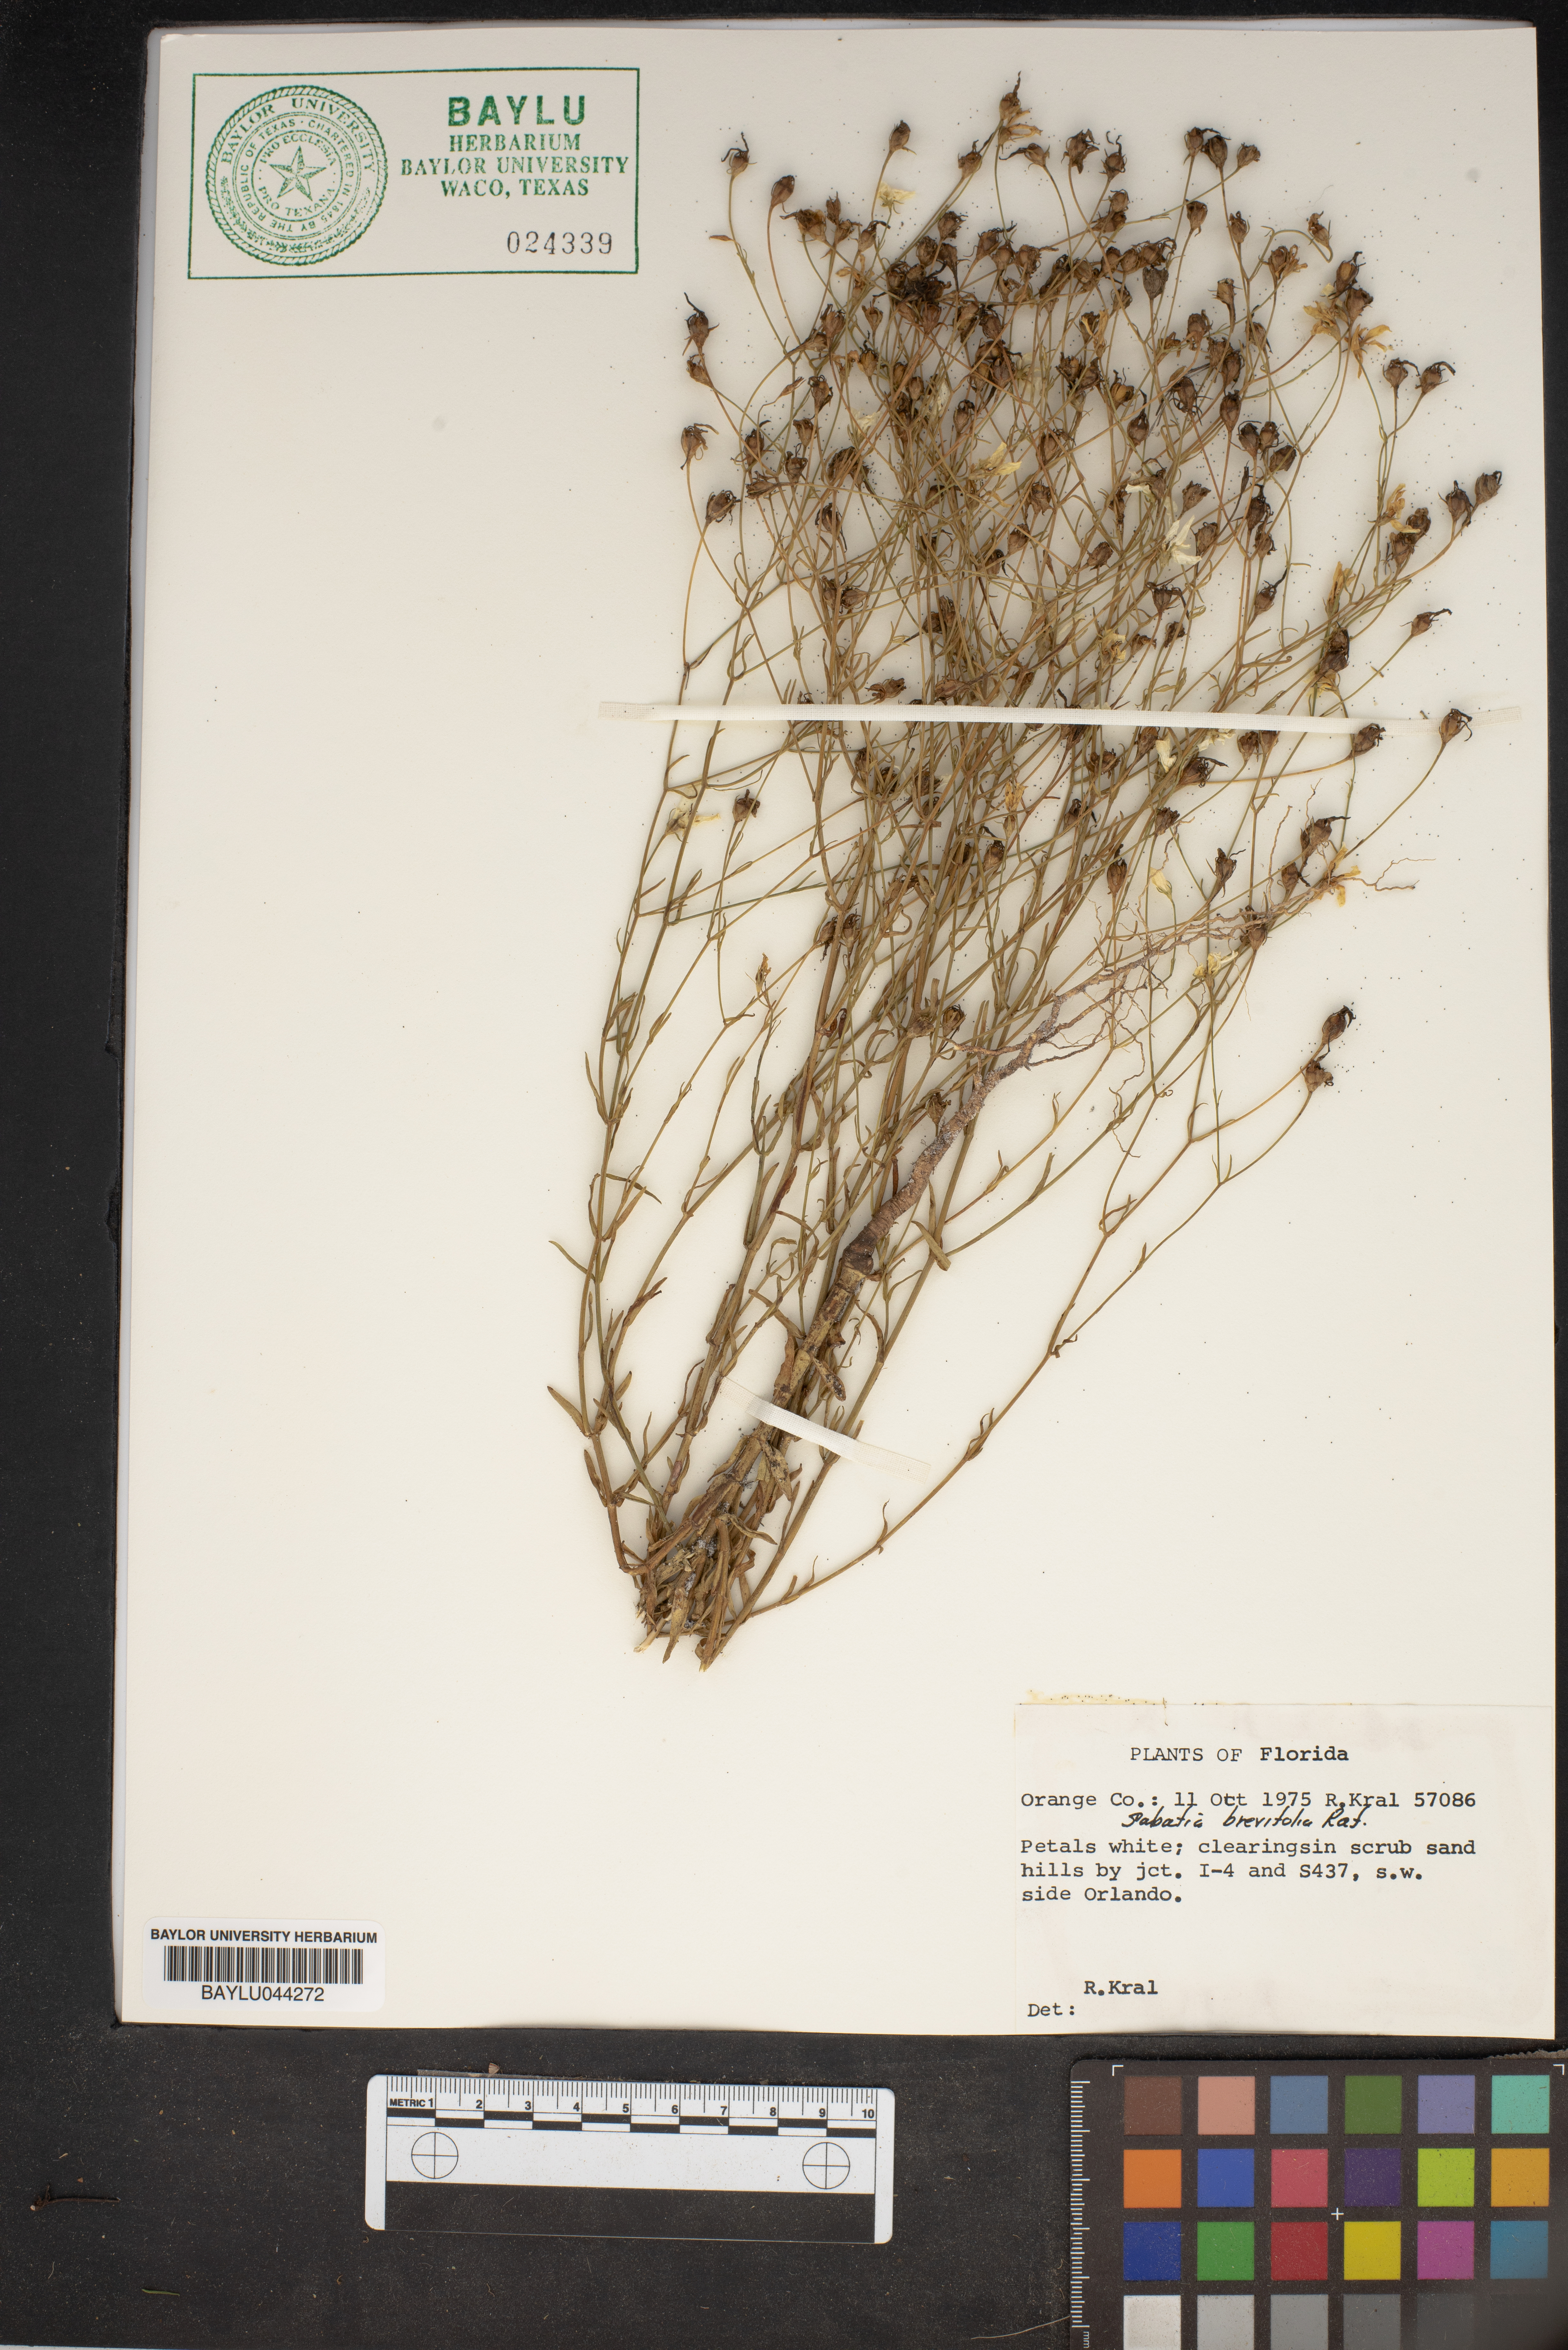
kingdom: Plantae
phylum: Tracheophyta
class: Magnoliopsida
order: Gentianales
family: Gentianaceae
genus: Sabatia
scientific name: Sabatia brevifolia
